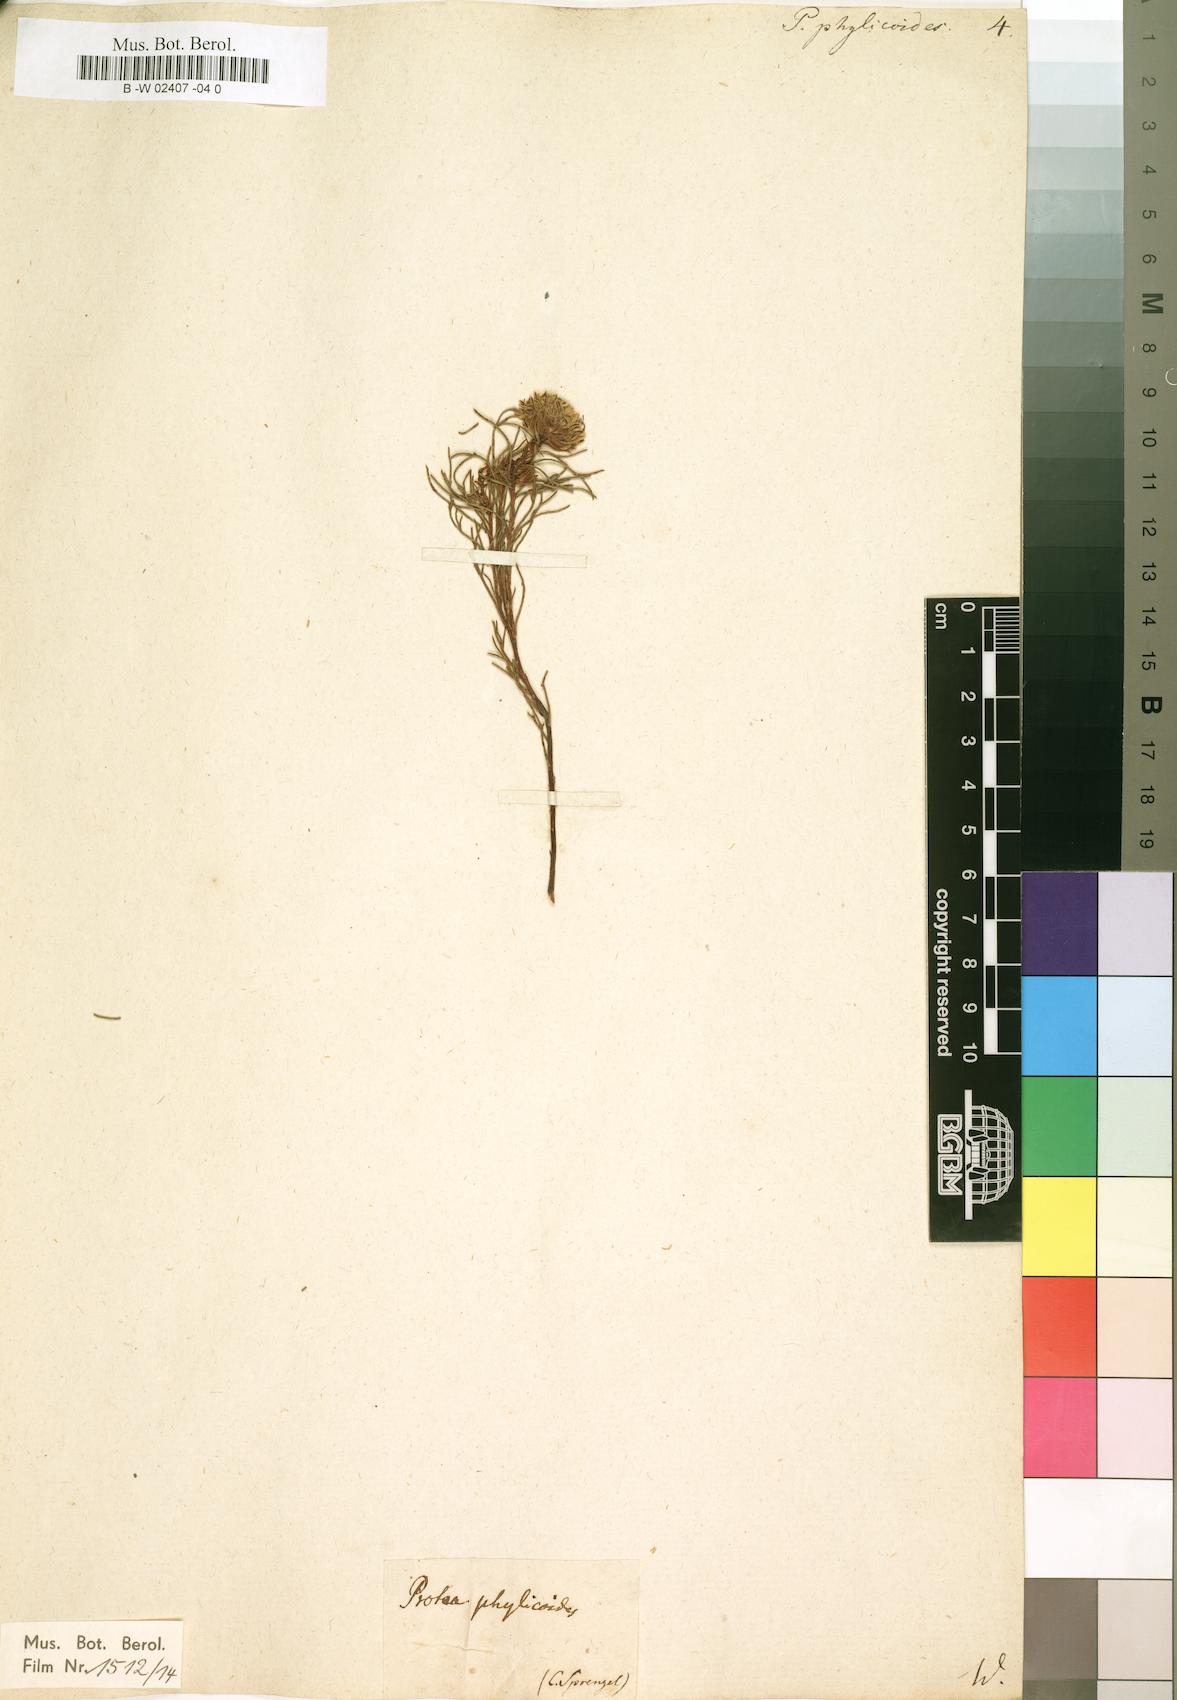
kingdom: Plantae
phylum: Tracheophyta
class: Magnoliopsida
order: Proteales
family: Proteaceae
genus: Protea
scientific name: Protea phylicoides
